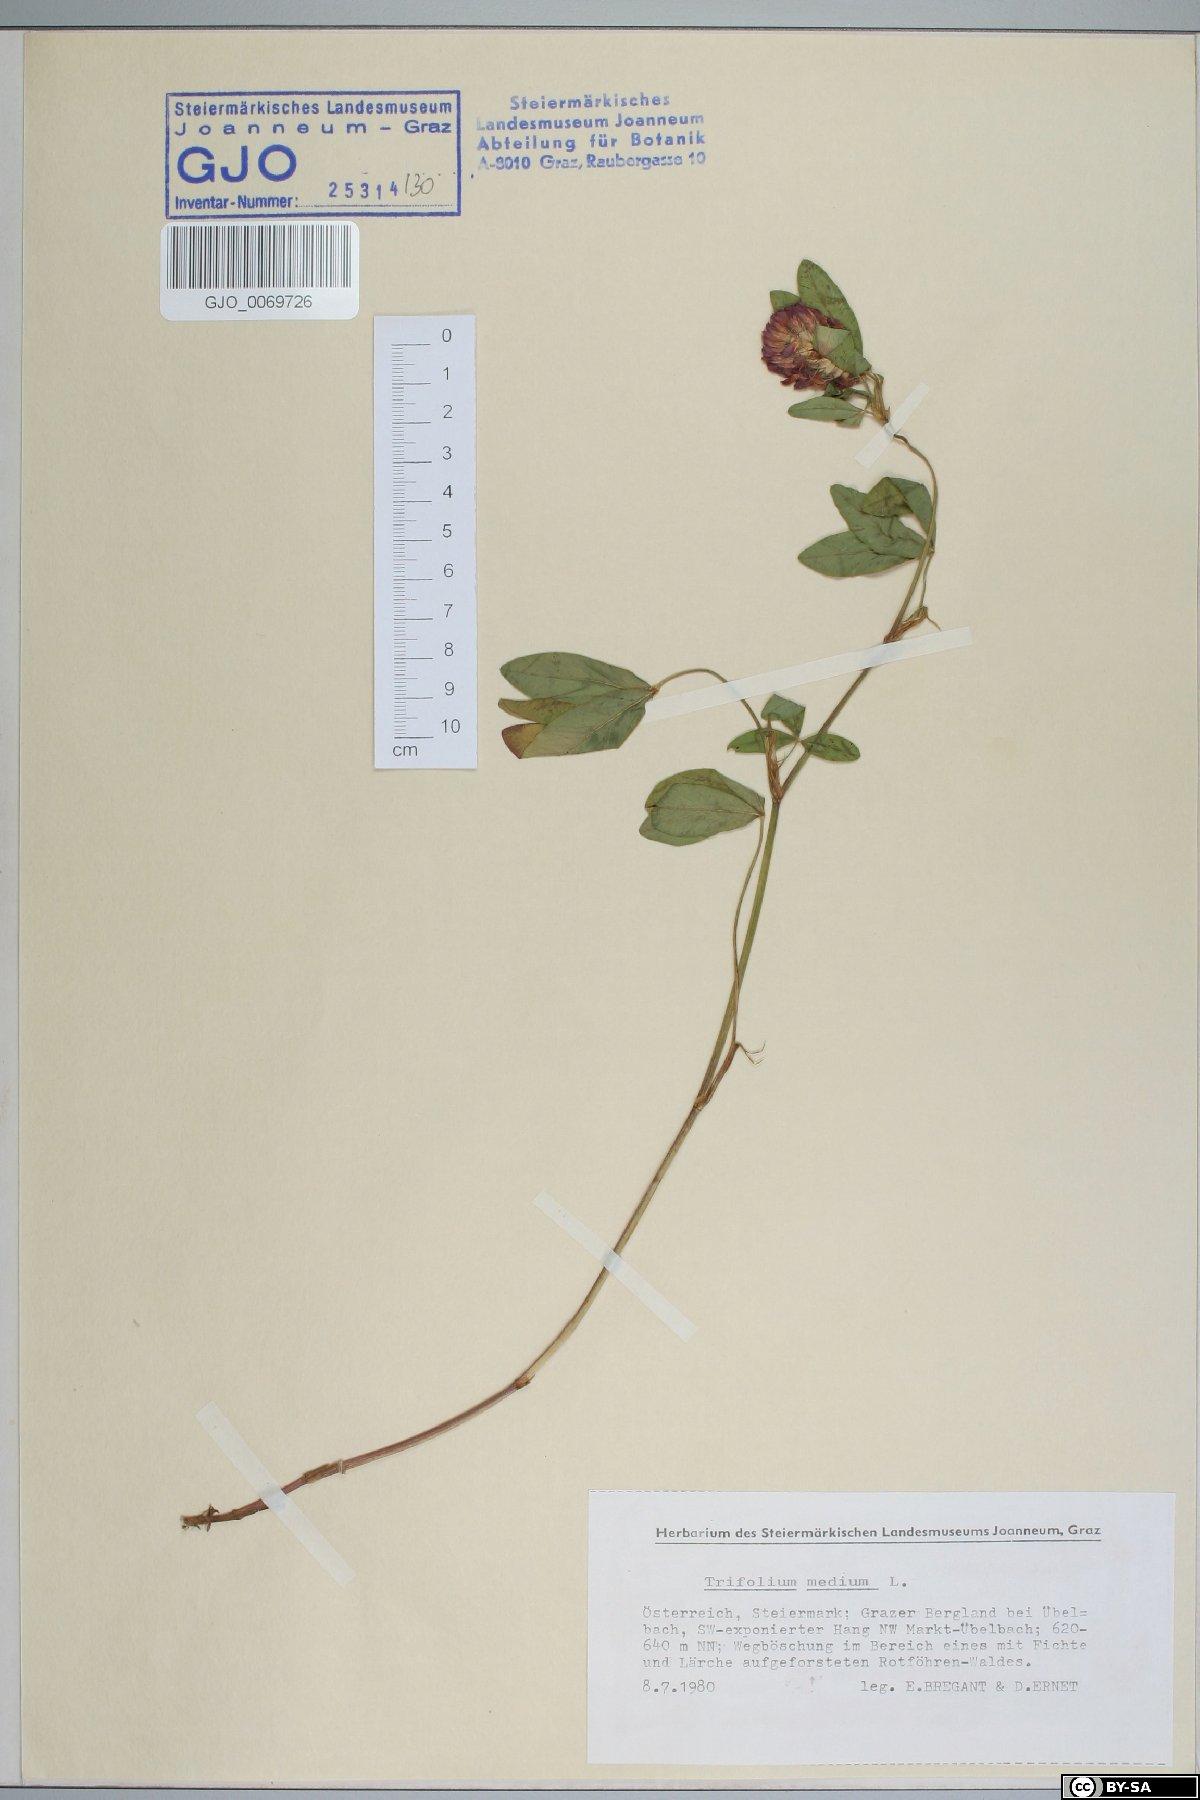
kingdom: Plantae
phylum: Tracheophyta
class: Magnoliopsida
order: Fabales
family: Fabaceae
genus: Trifolium
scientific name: Trifolium medium
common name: Zigzag clover
